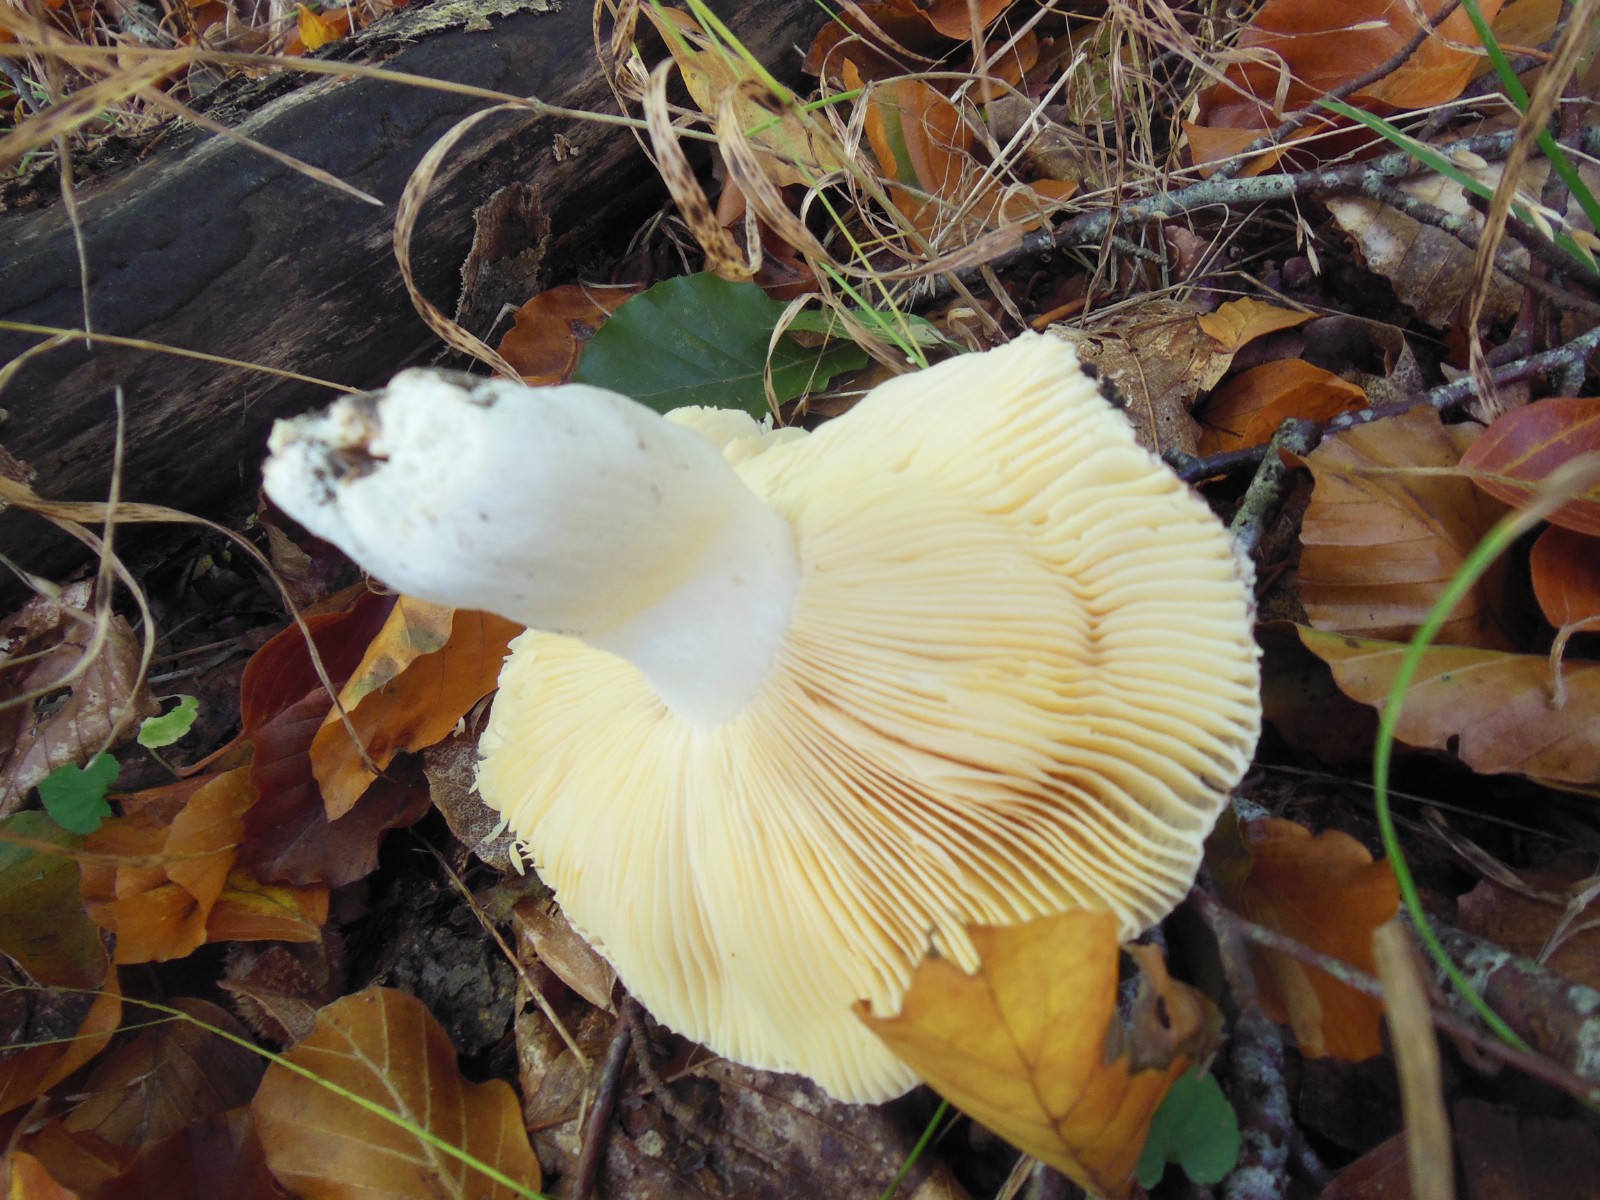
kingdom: Fungi
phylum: Basidiomycota
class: Agaricomycetes
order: Russulales
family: Russulaceae
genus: Russula
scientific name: Russula romellii
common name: romells skørhat
